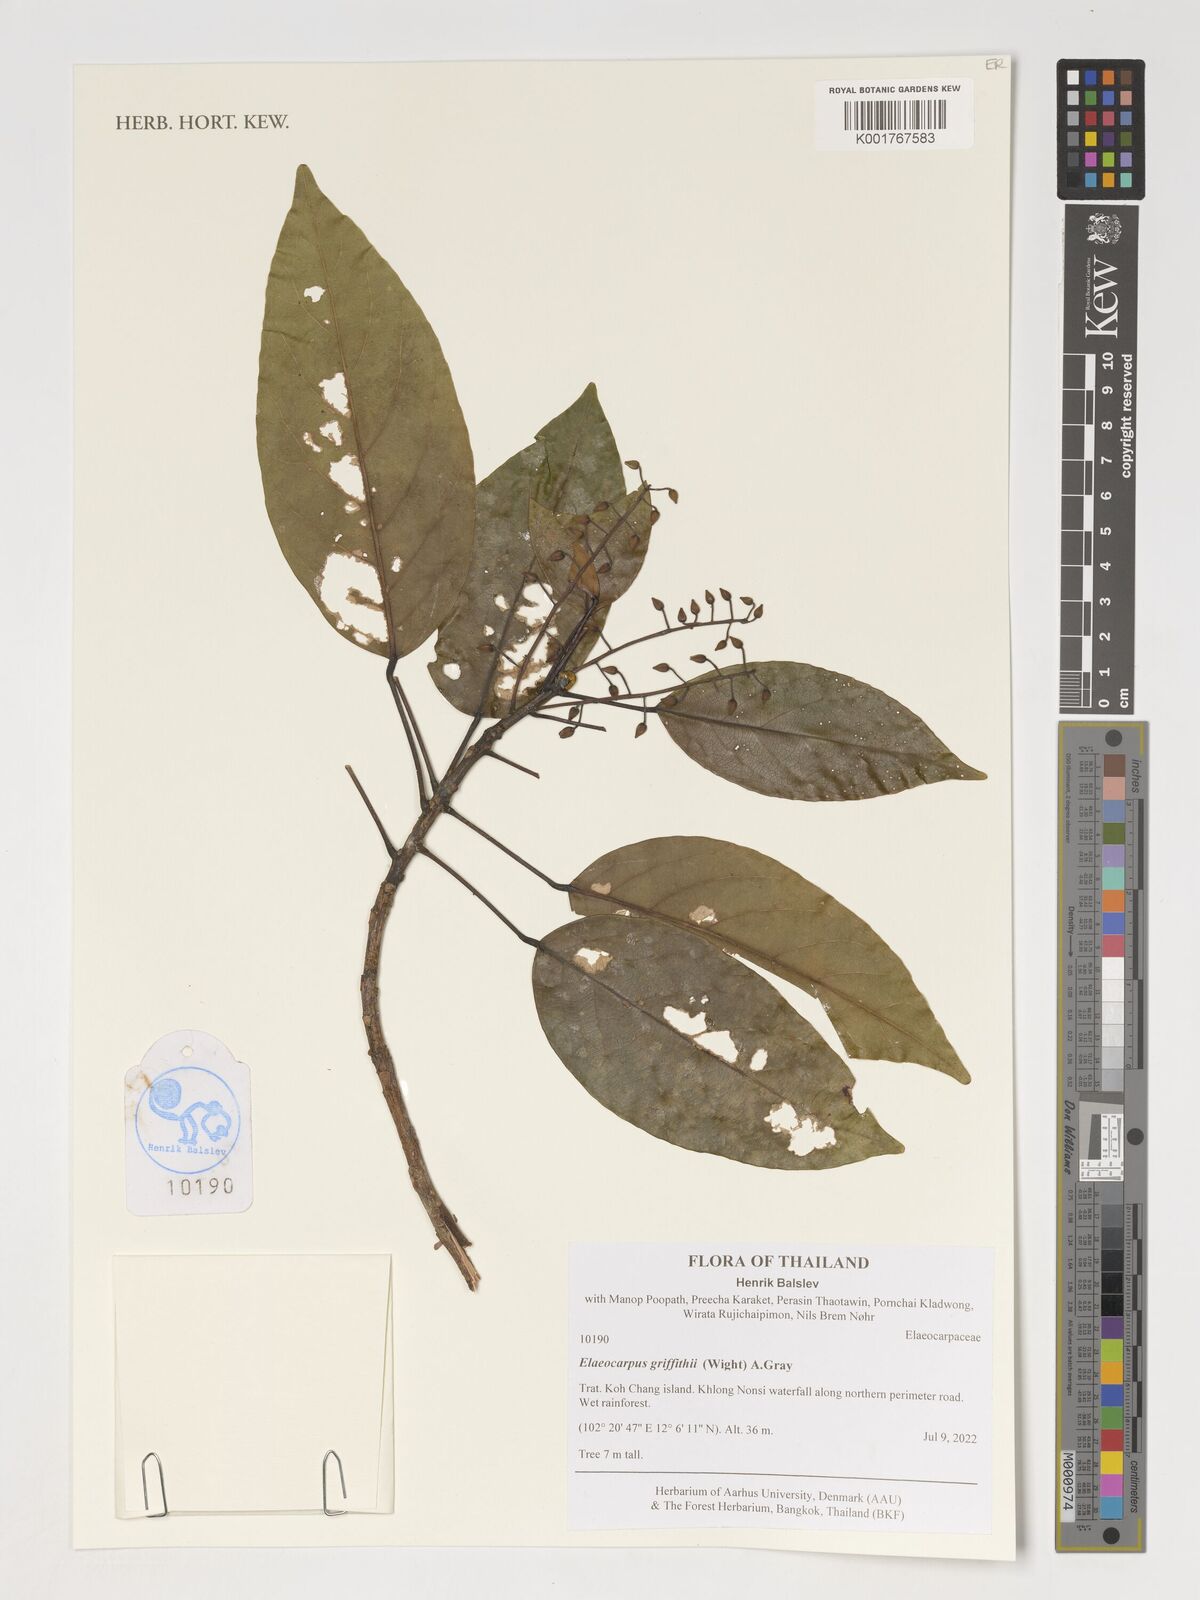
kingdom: Plantae
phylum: Tracheophyta
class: Magnoliopsida
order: Oxalidales
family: Elaeocarpaceae
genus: Elaeocarpus
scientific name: Elaeocarpus griffithii
